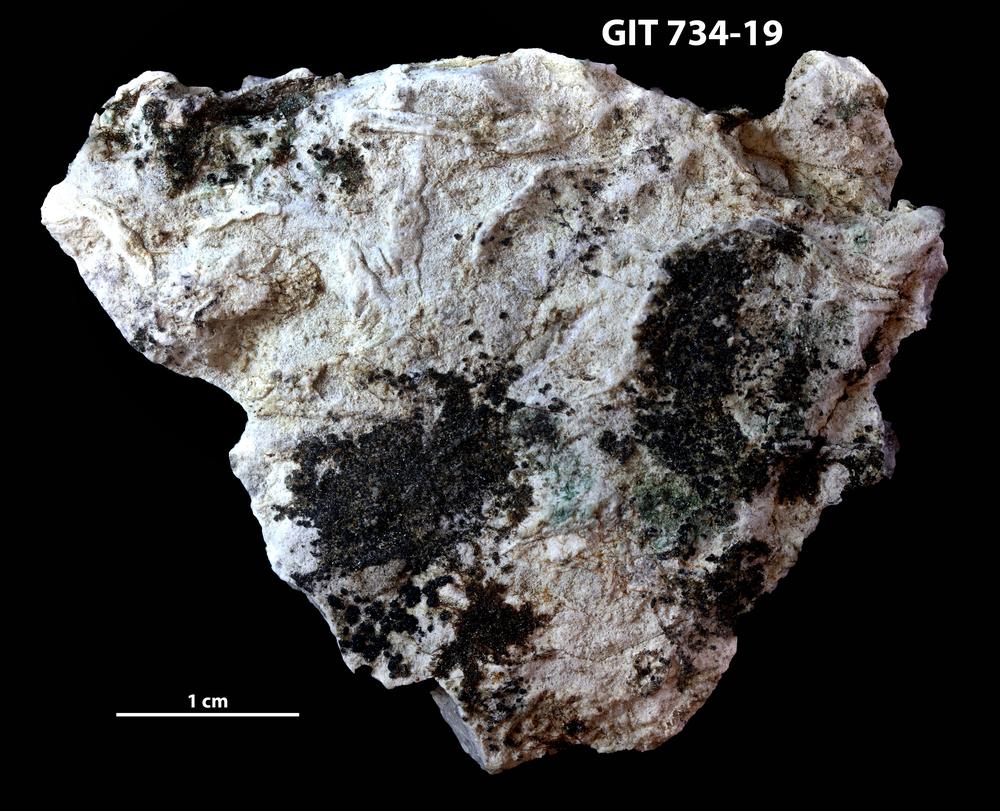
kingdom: Animalia
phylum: Cnidaria
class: Anthozoa
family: Cateniporidae
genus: Catenipora
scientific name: Catenipora
